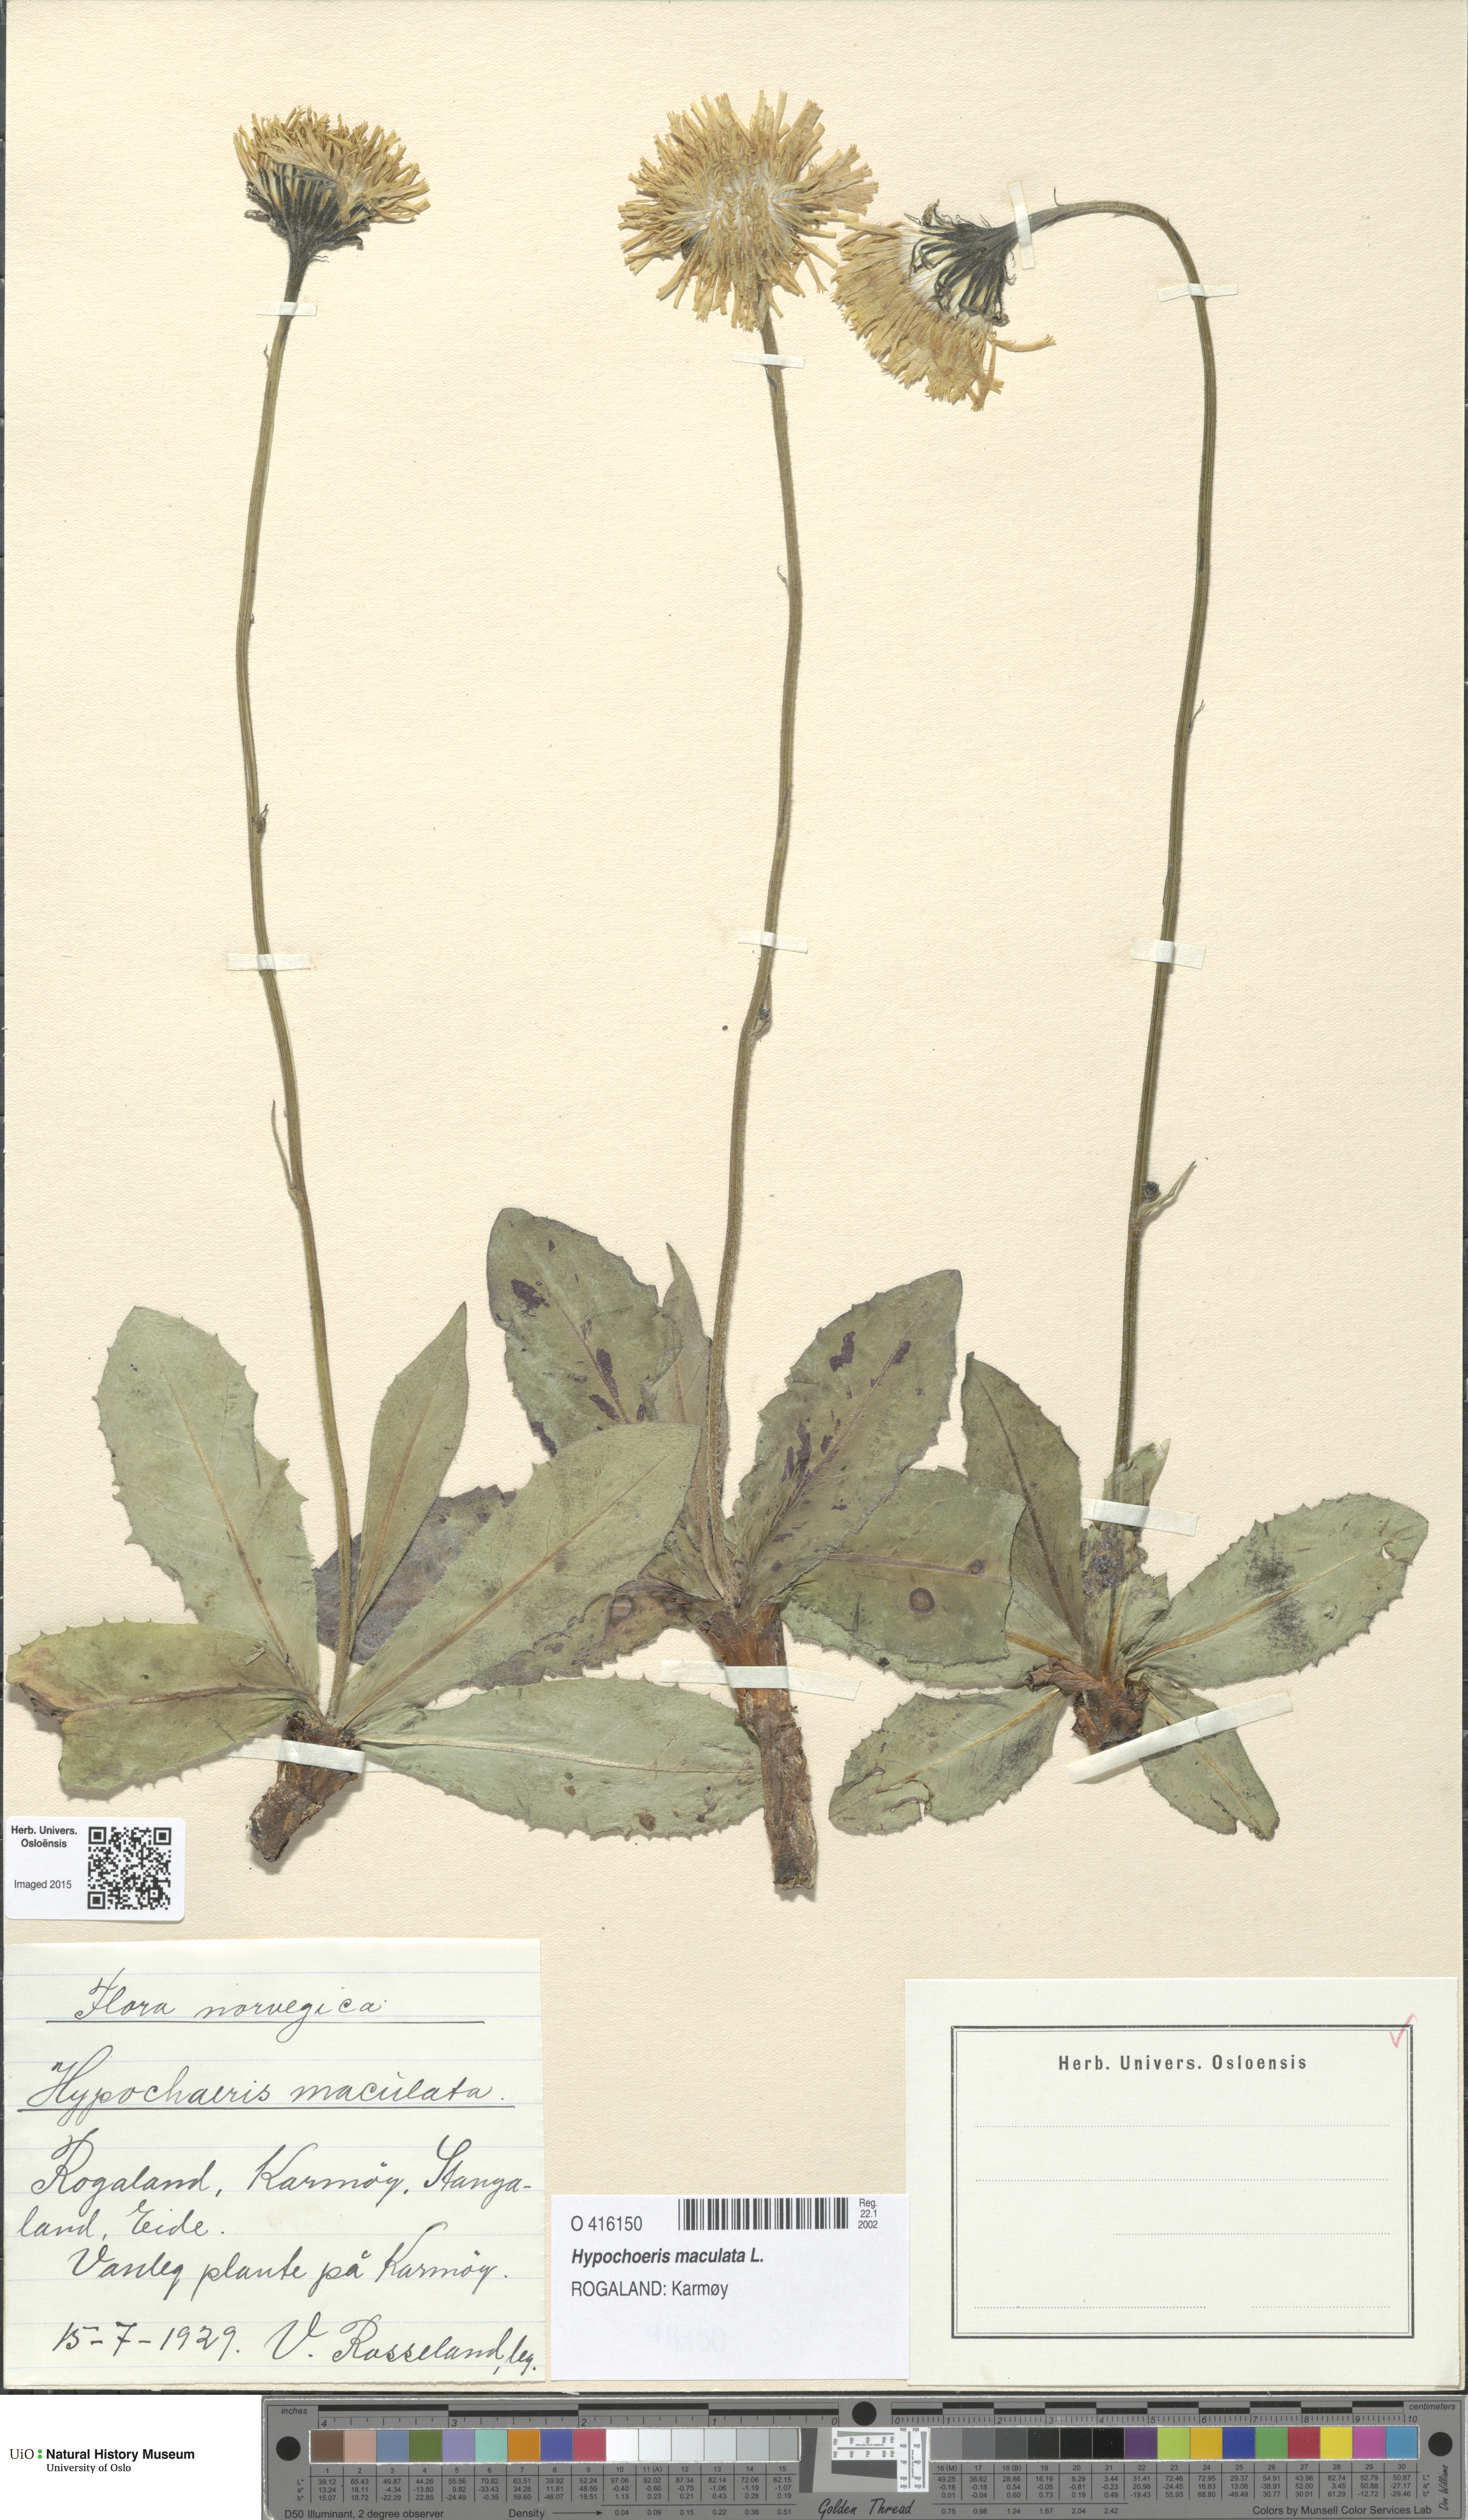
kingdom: Plantae
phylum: Tracheophyta
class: Magnoliopsida
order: Asterales
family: Asteraceae
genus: Trommsdorffia
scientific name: Trommsdorffia maculata
